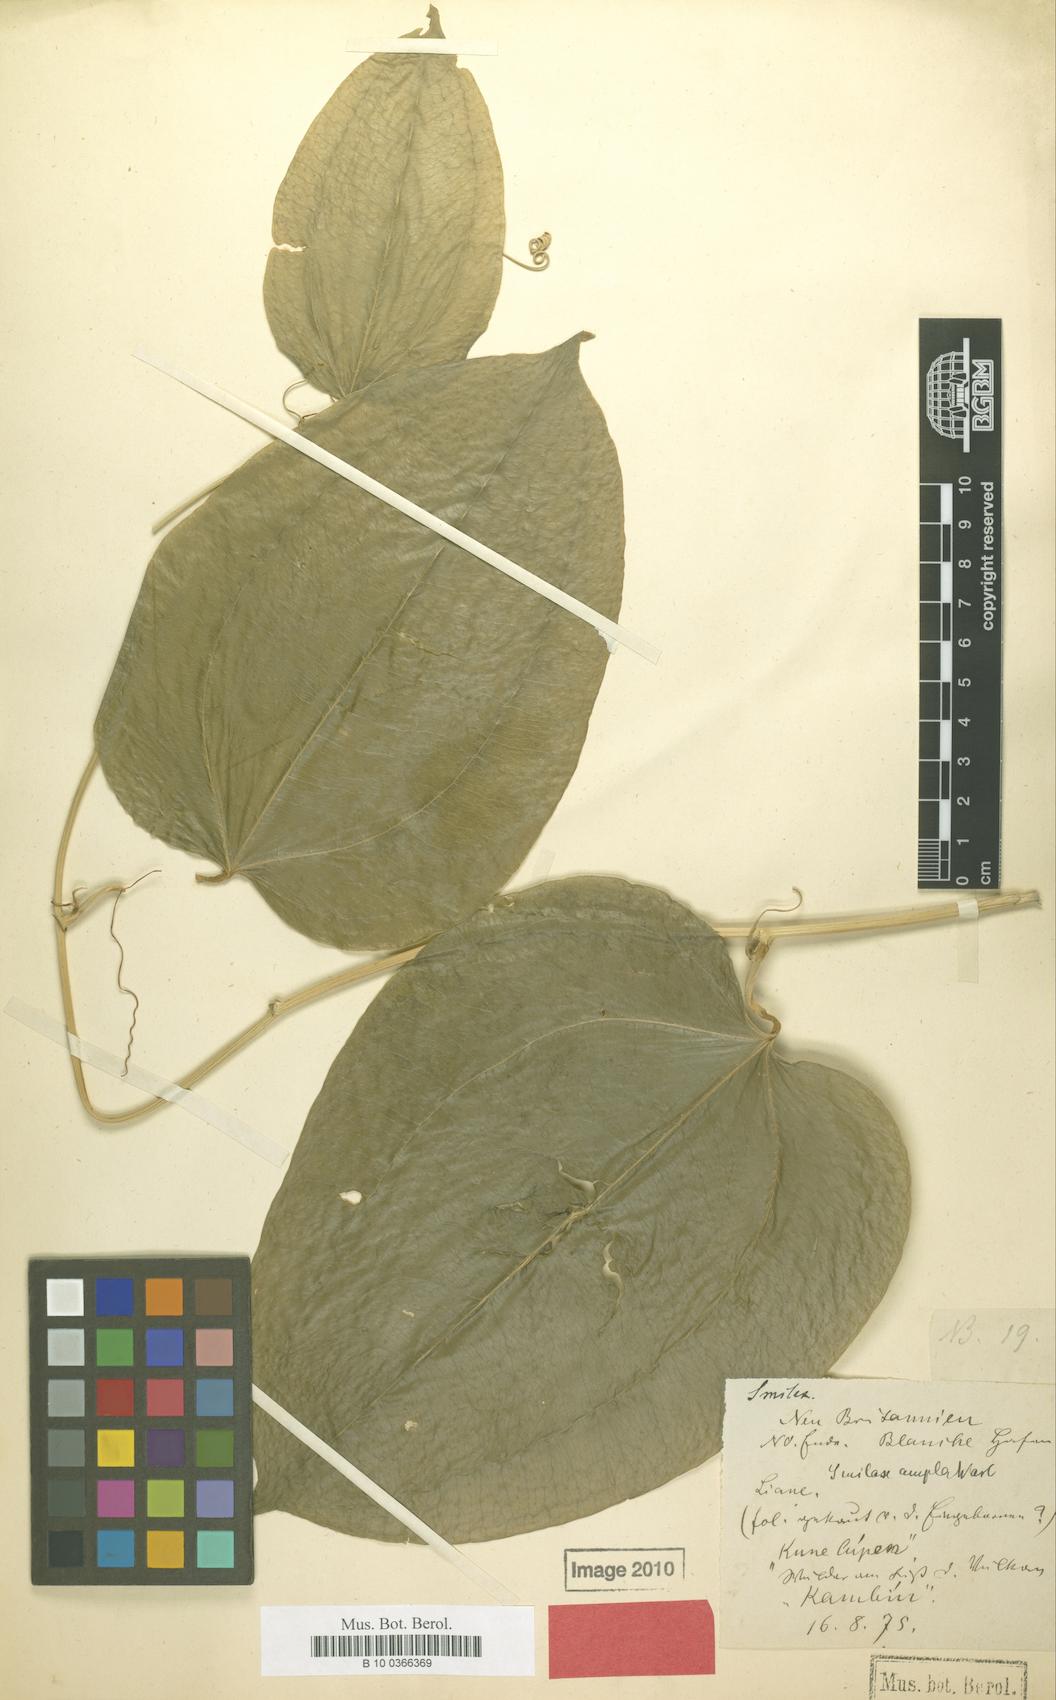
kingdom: Plantae
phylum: Tracheophyta
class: Liliopsida
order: Liliales
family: Smilacaceae
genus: Smilax
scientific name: Smilax ampla
